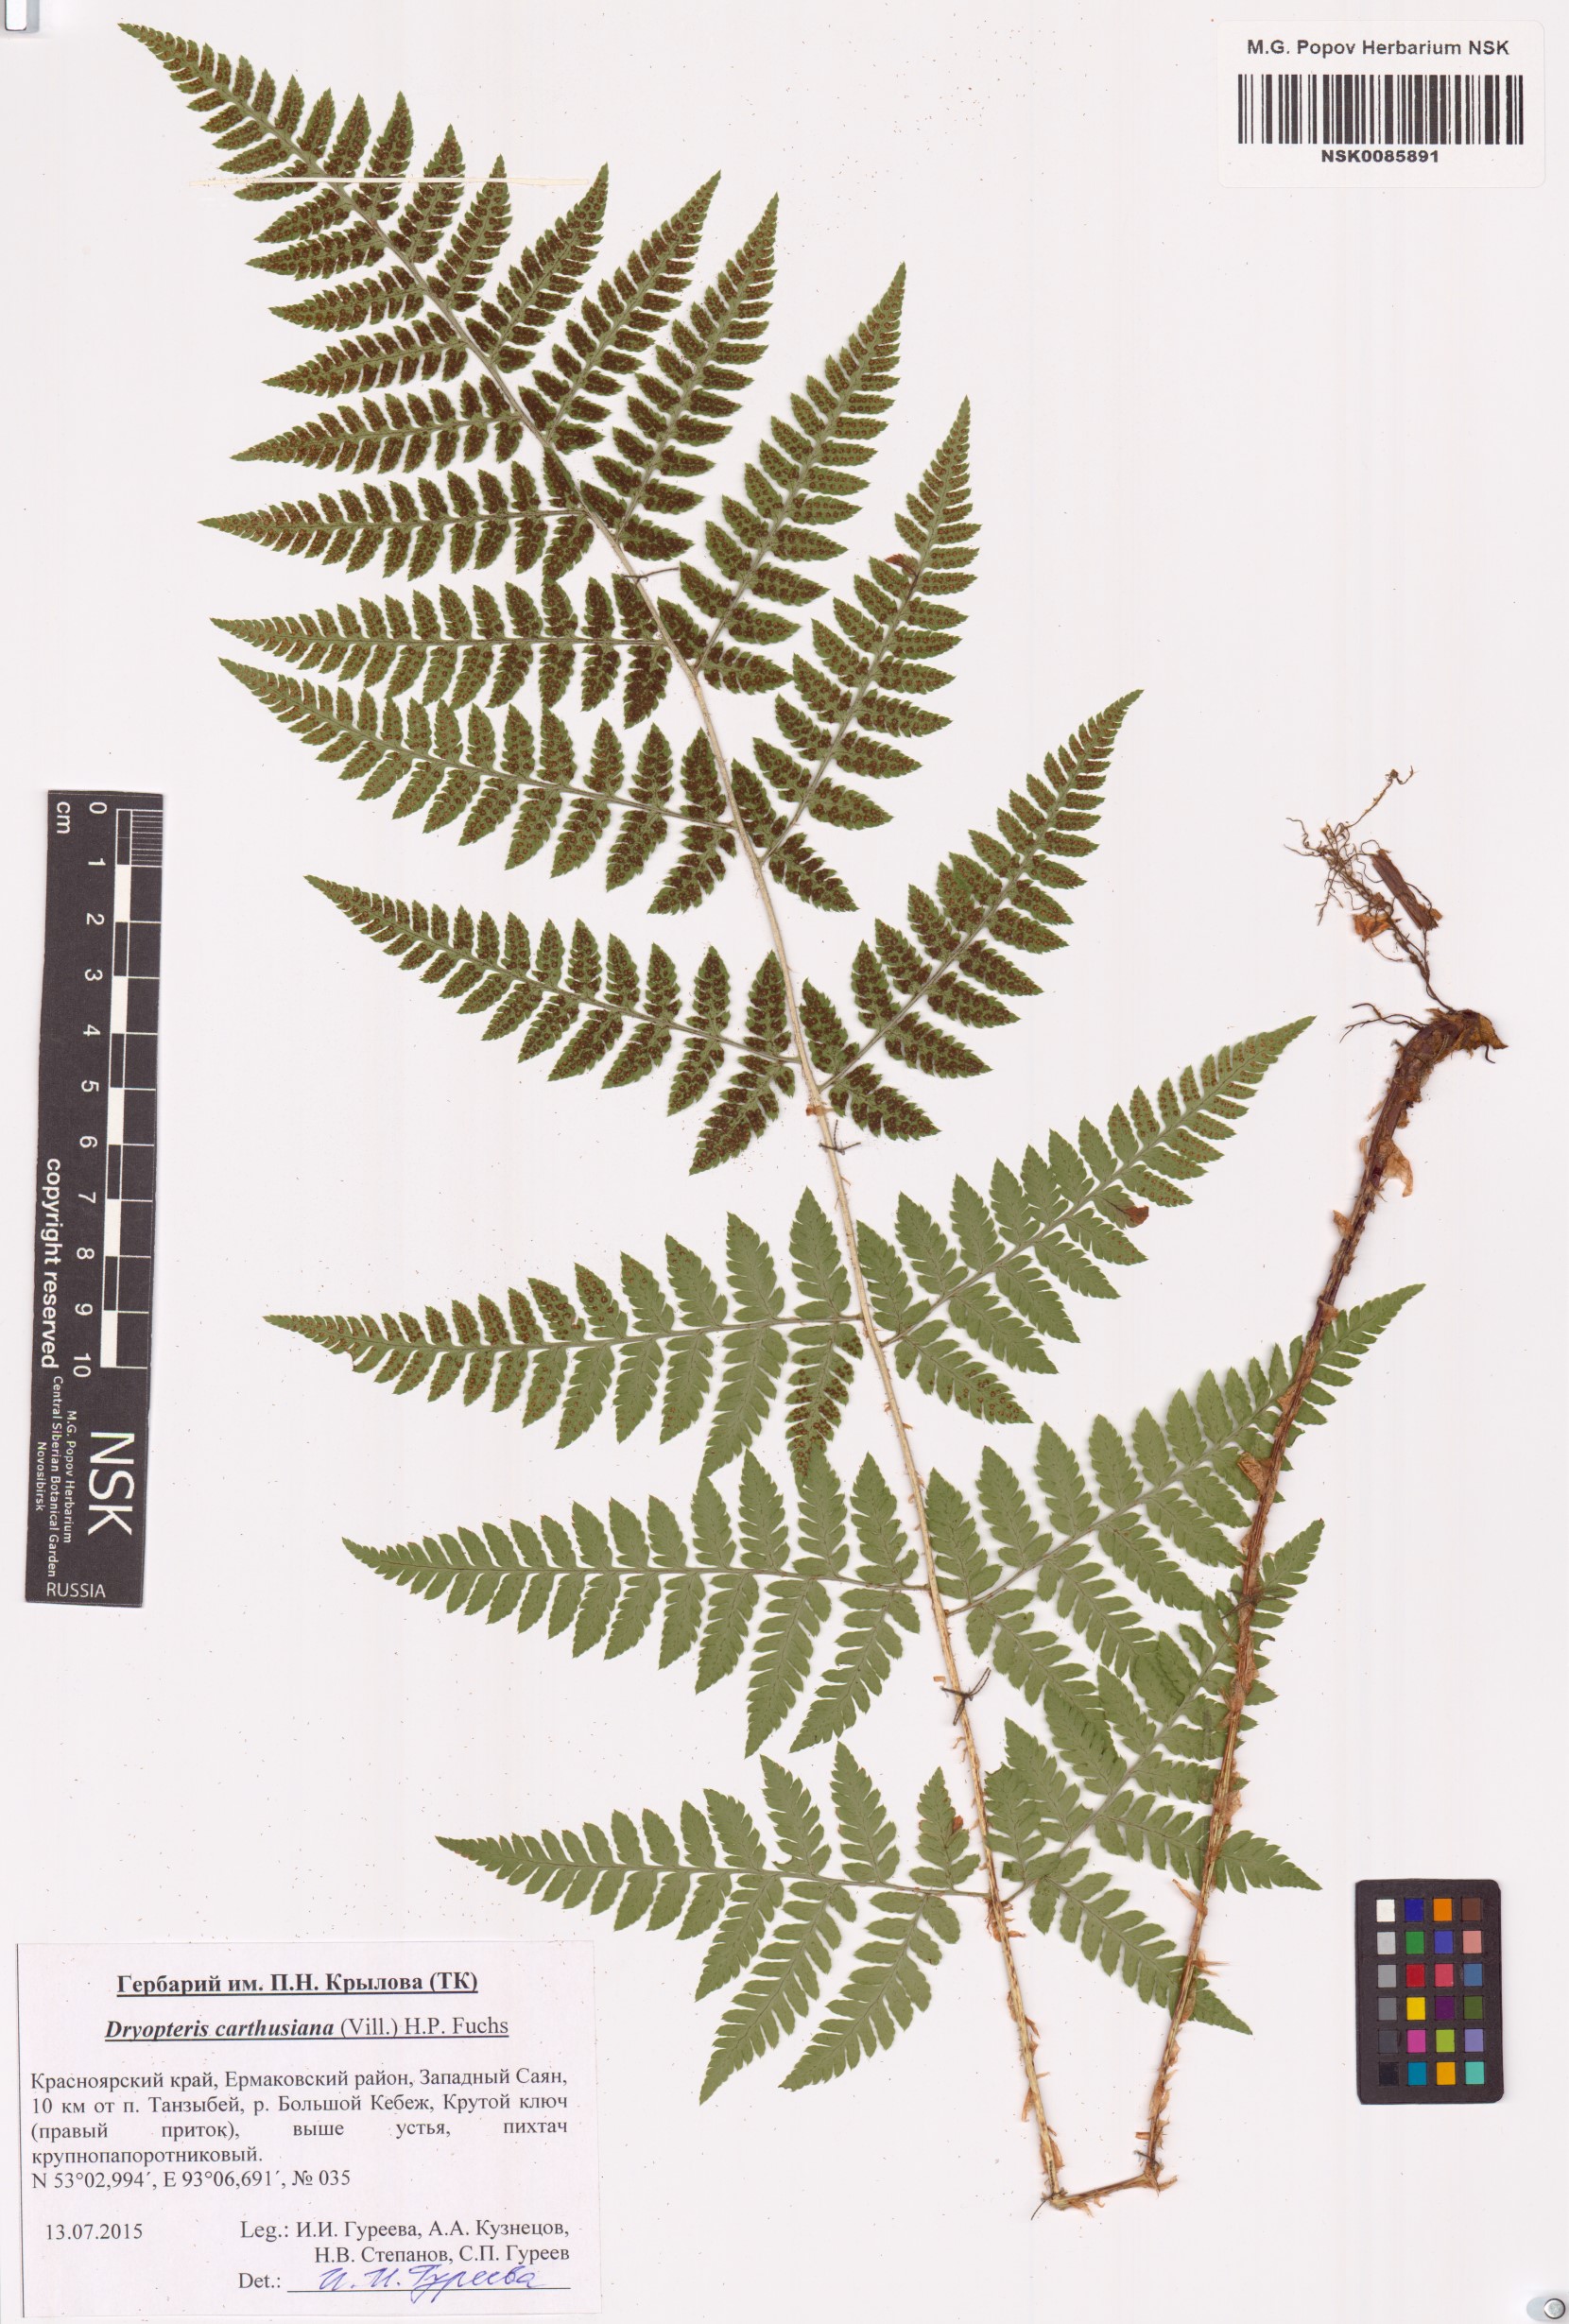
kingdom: Plantae
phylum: Tracheophyta
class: Polypodiopsida
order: Polypodiales
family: Dryopteridaceae
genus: Dryopteris
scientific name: Dryopteris carthusiana
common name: Narrow buckler-fern
